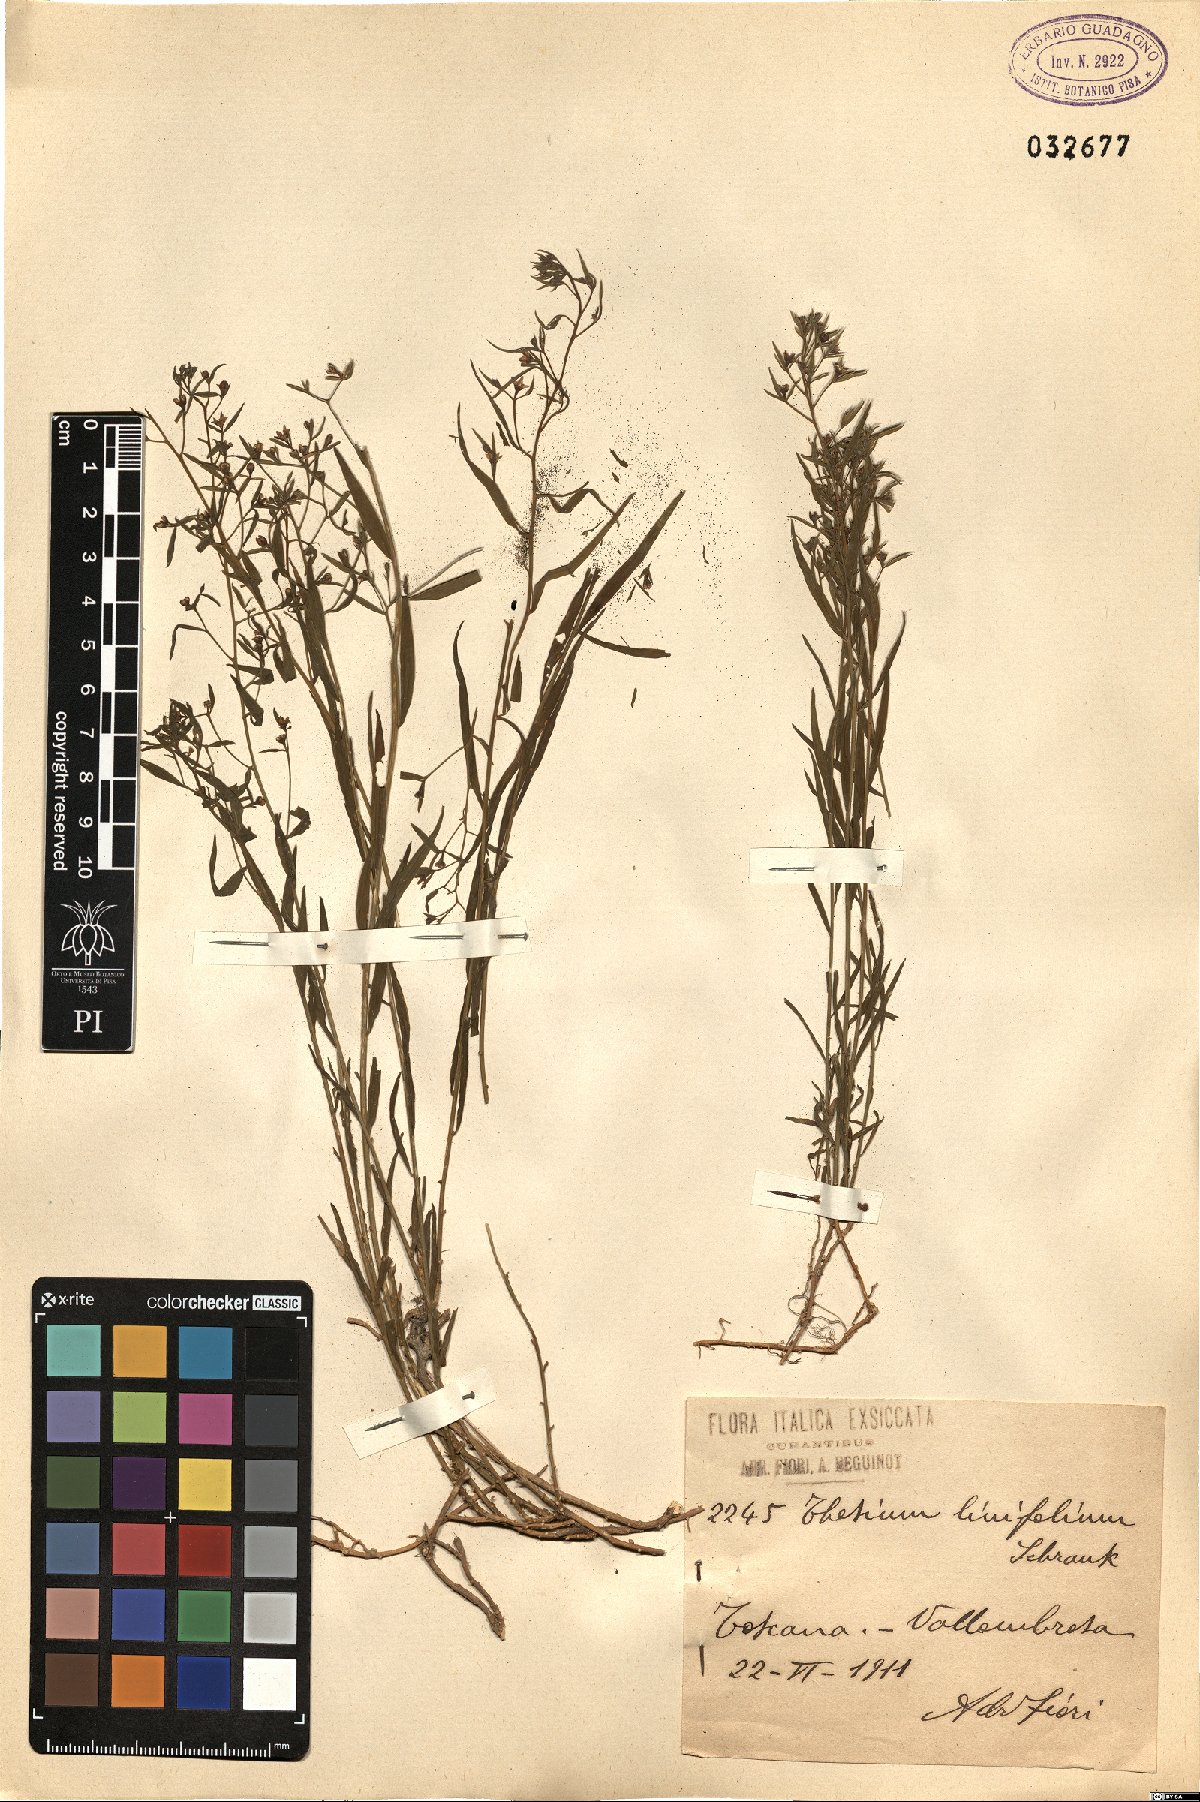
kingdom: Plantae
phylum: Tracheophyta
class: Magnoliopsida
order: Santalales
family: Thesiaceae
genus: Thesium
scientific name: Thesium linophyllon
